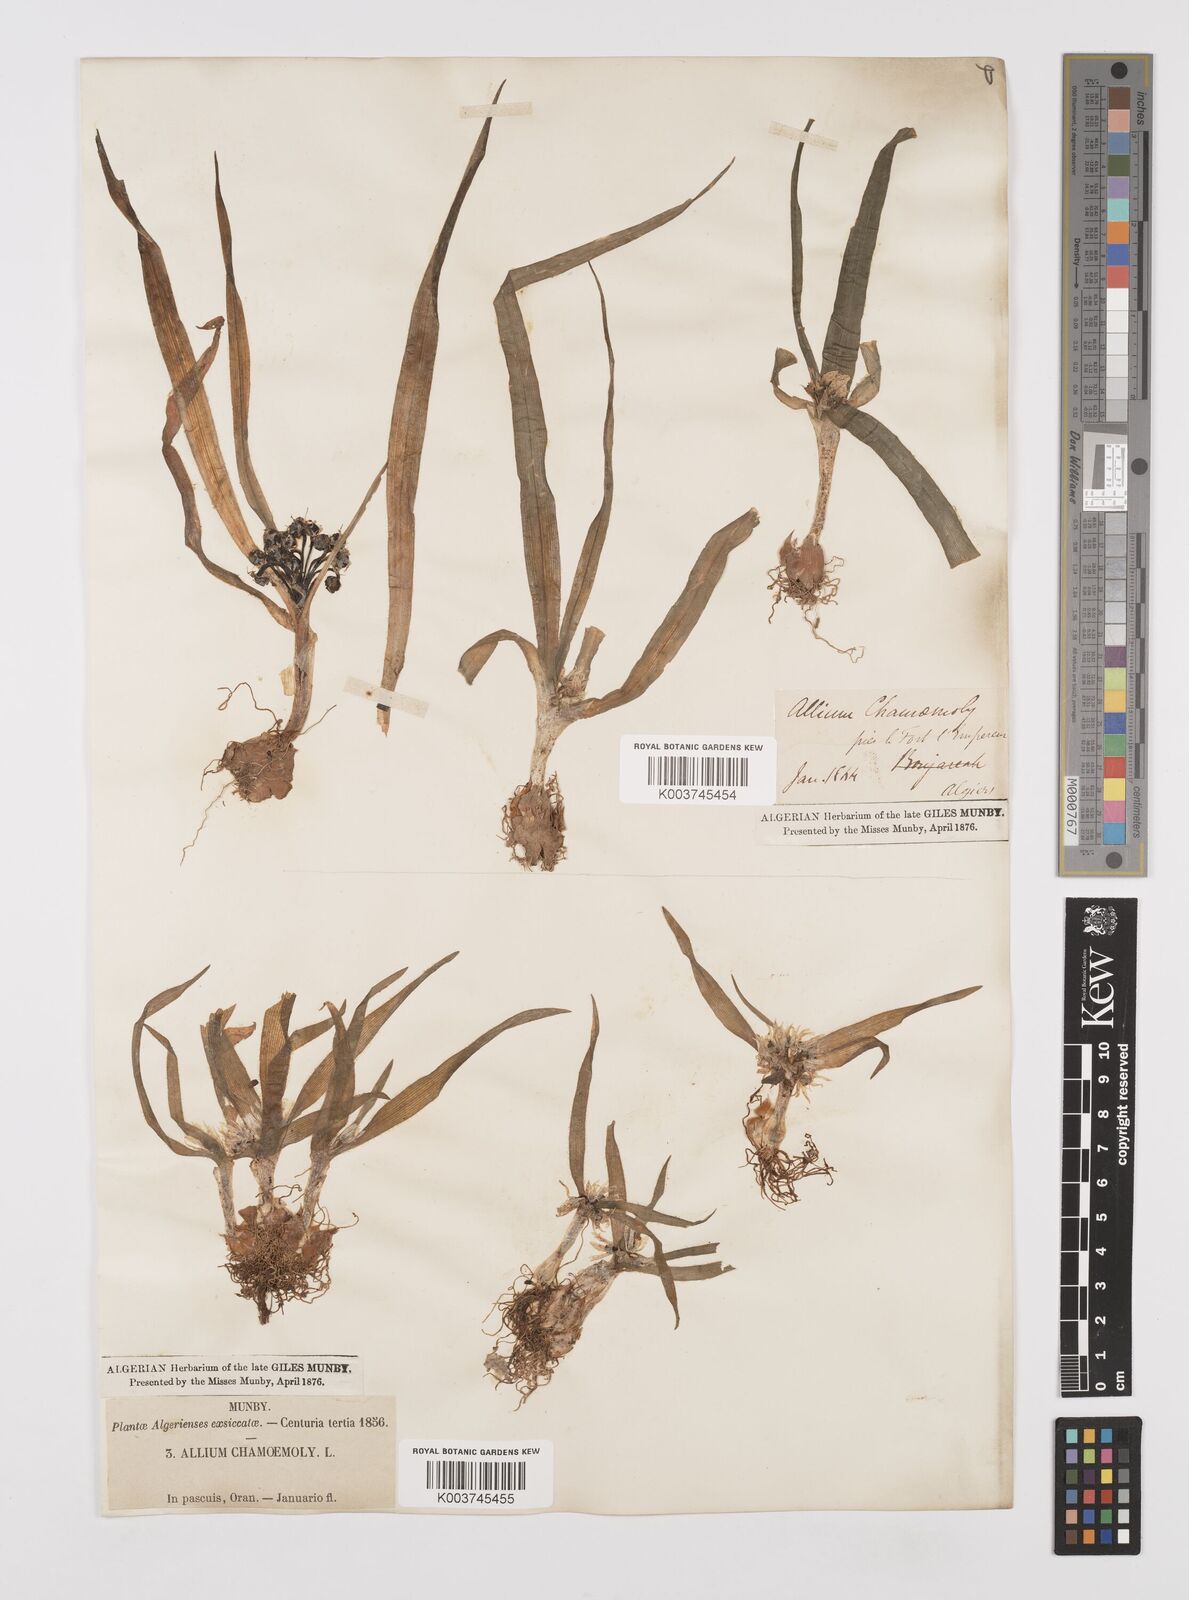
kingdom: Plantae
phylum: Tracheophyta
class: Liliopsida
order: Asparagales
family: Amaryllidaceae
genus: Allium
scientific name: Allium chamaemoly
